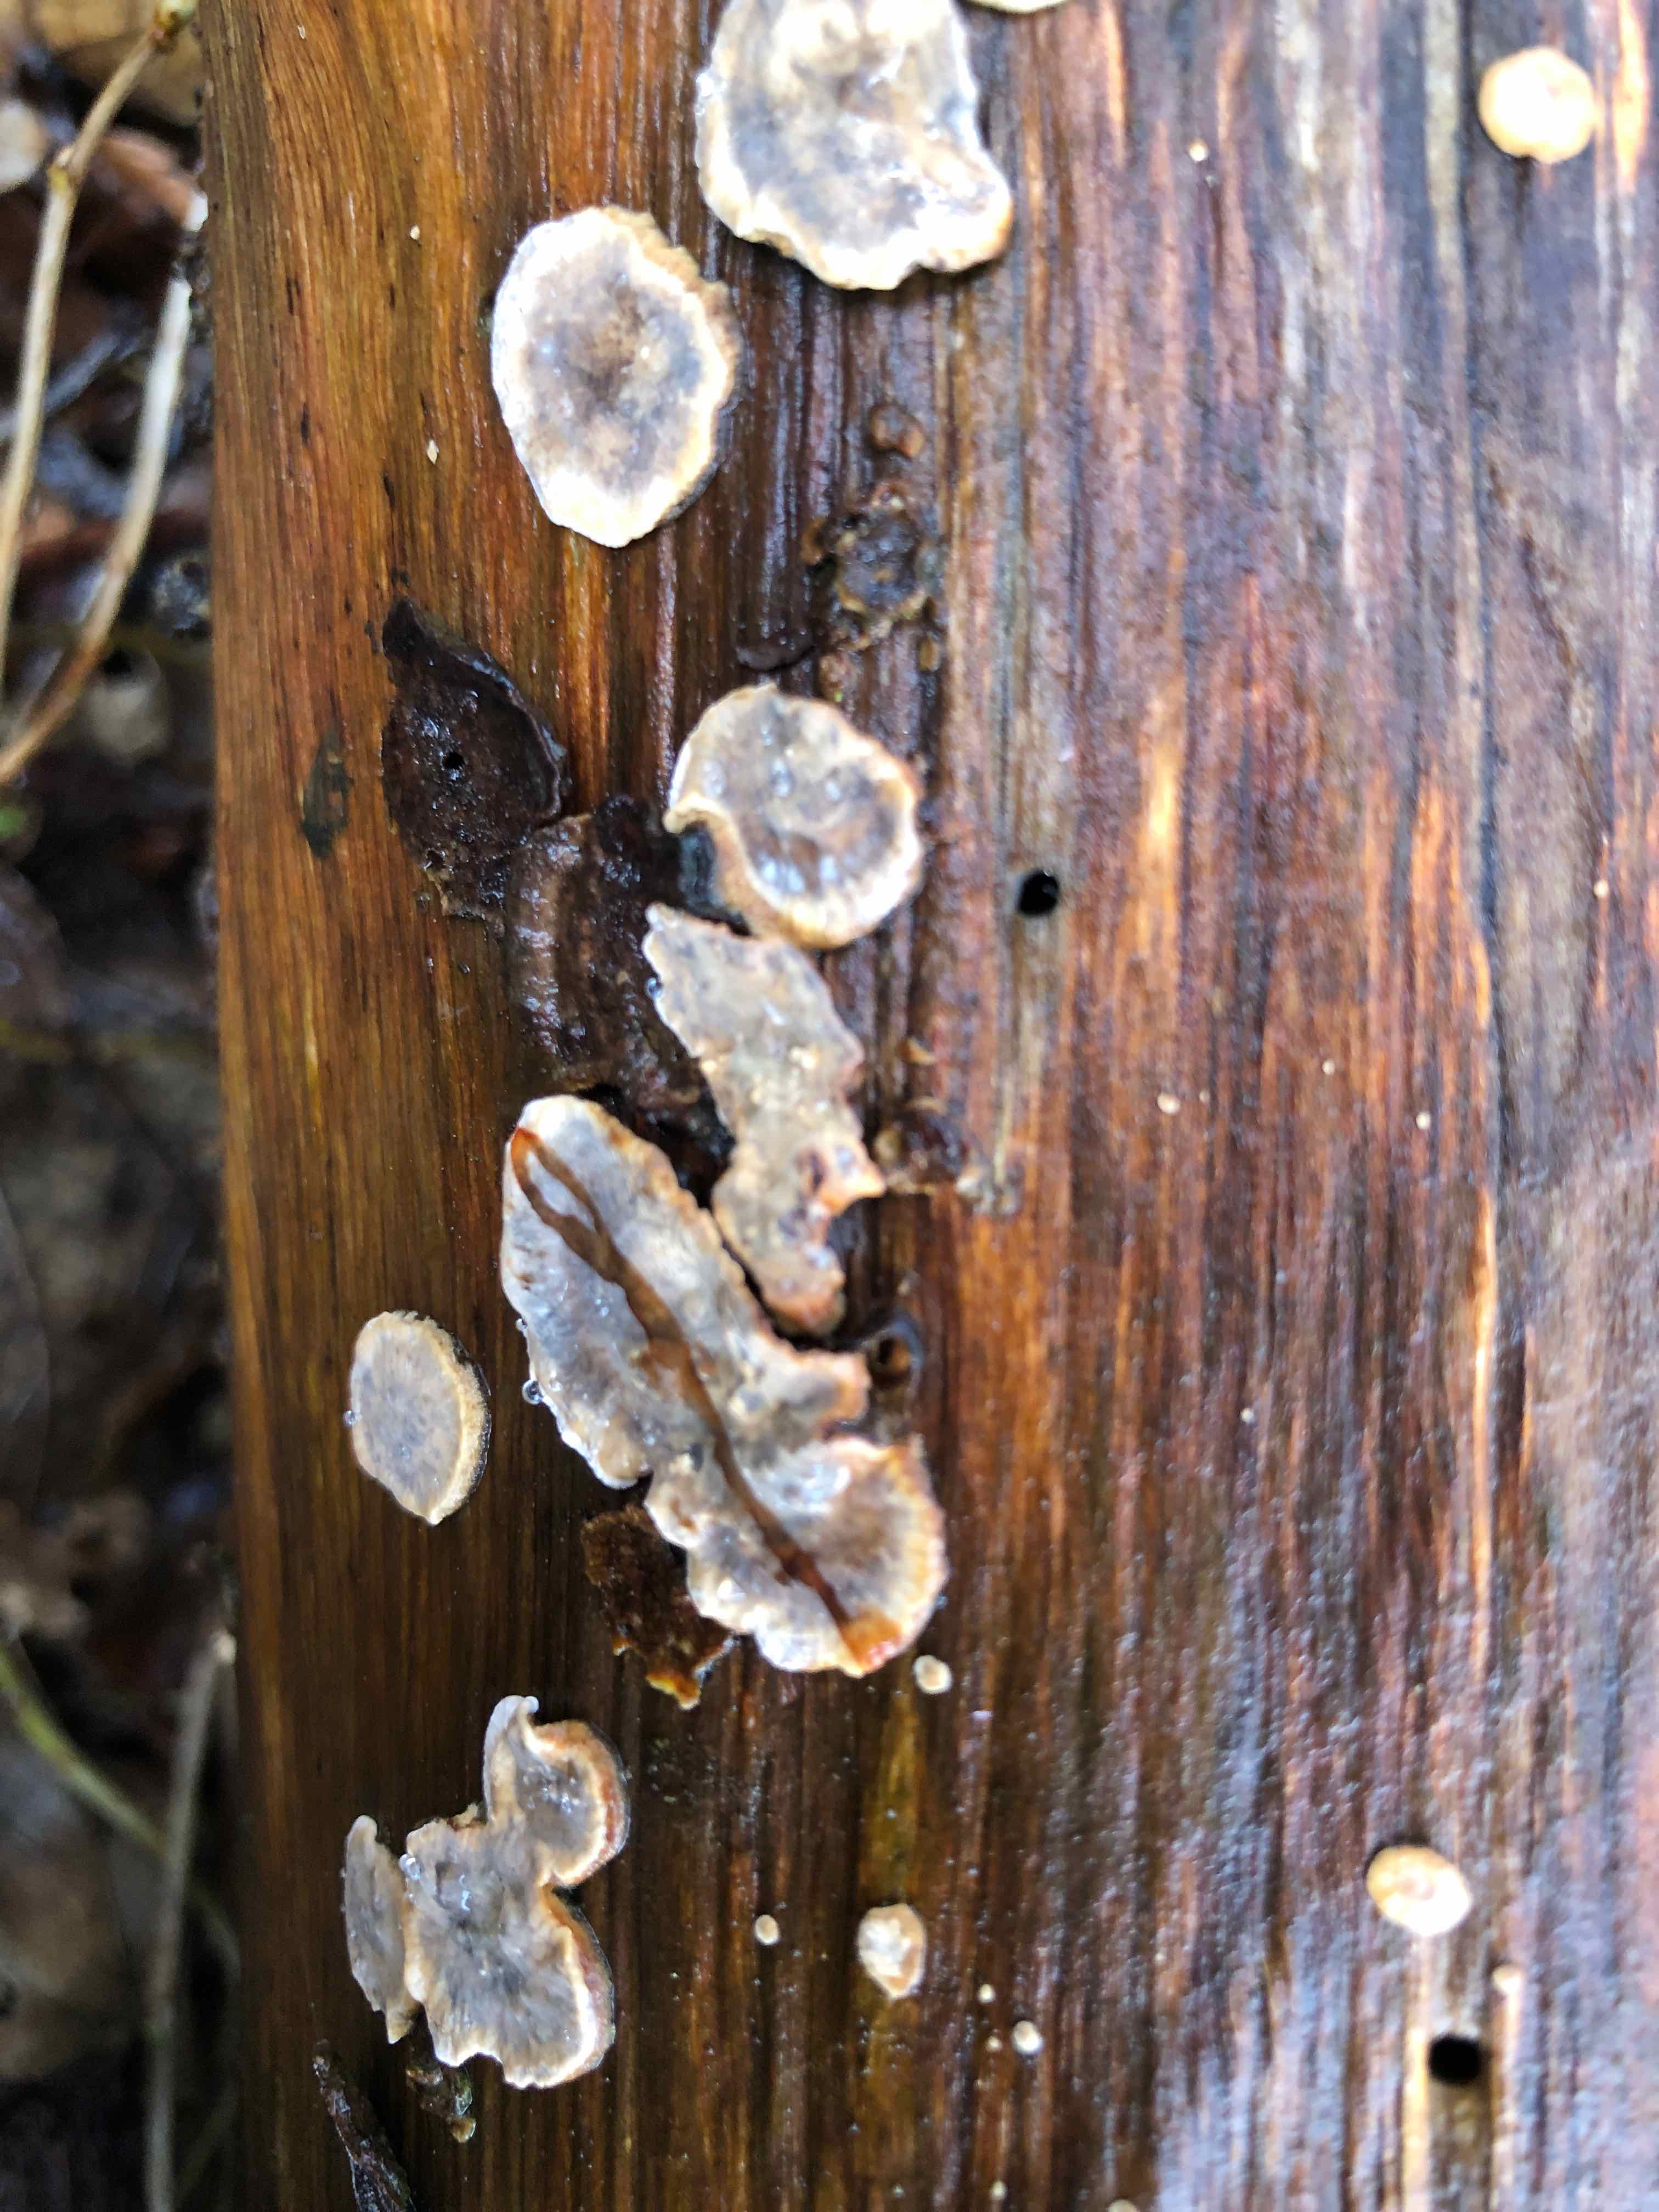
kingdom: Fungi
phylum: Basidiomycota
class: Agaricomycetes
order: Russulales
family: Stereaceae
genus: Stereum
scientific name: Stereum rugosum
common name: rynket lædersvamp
